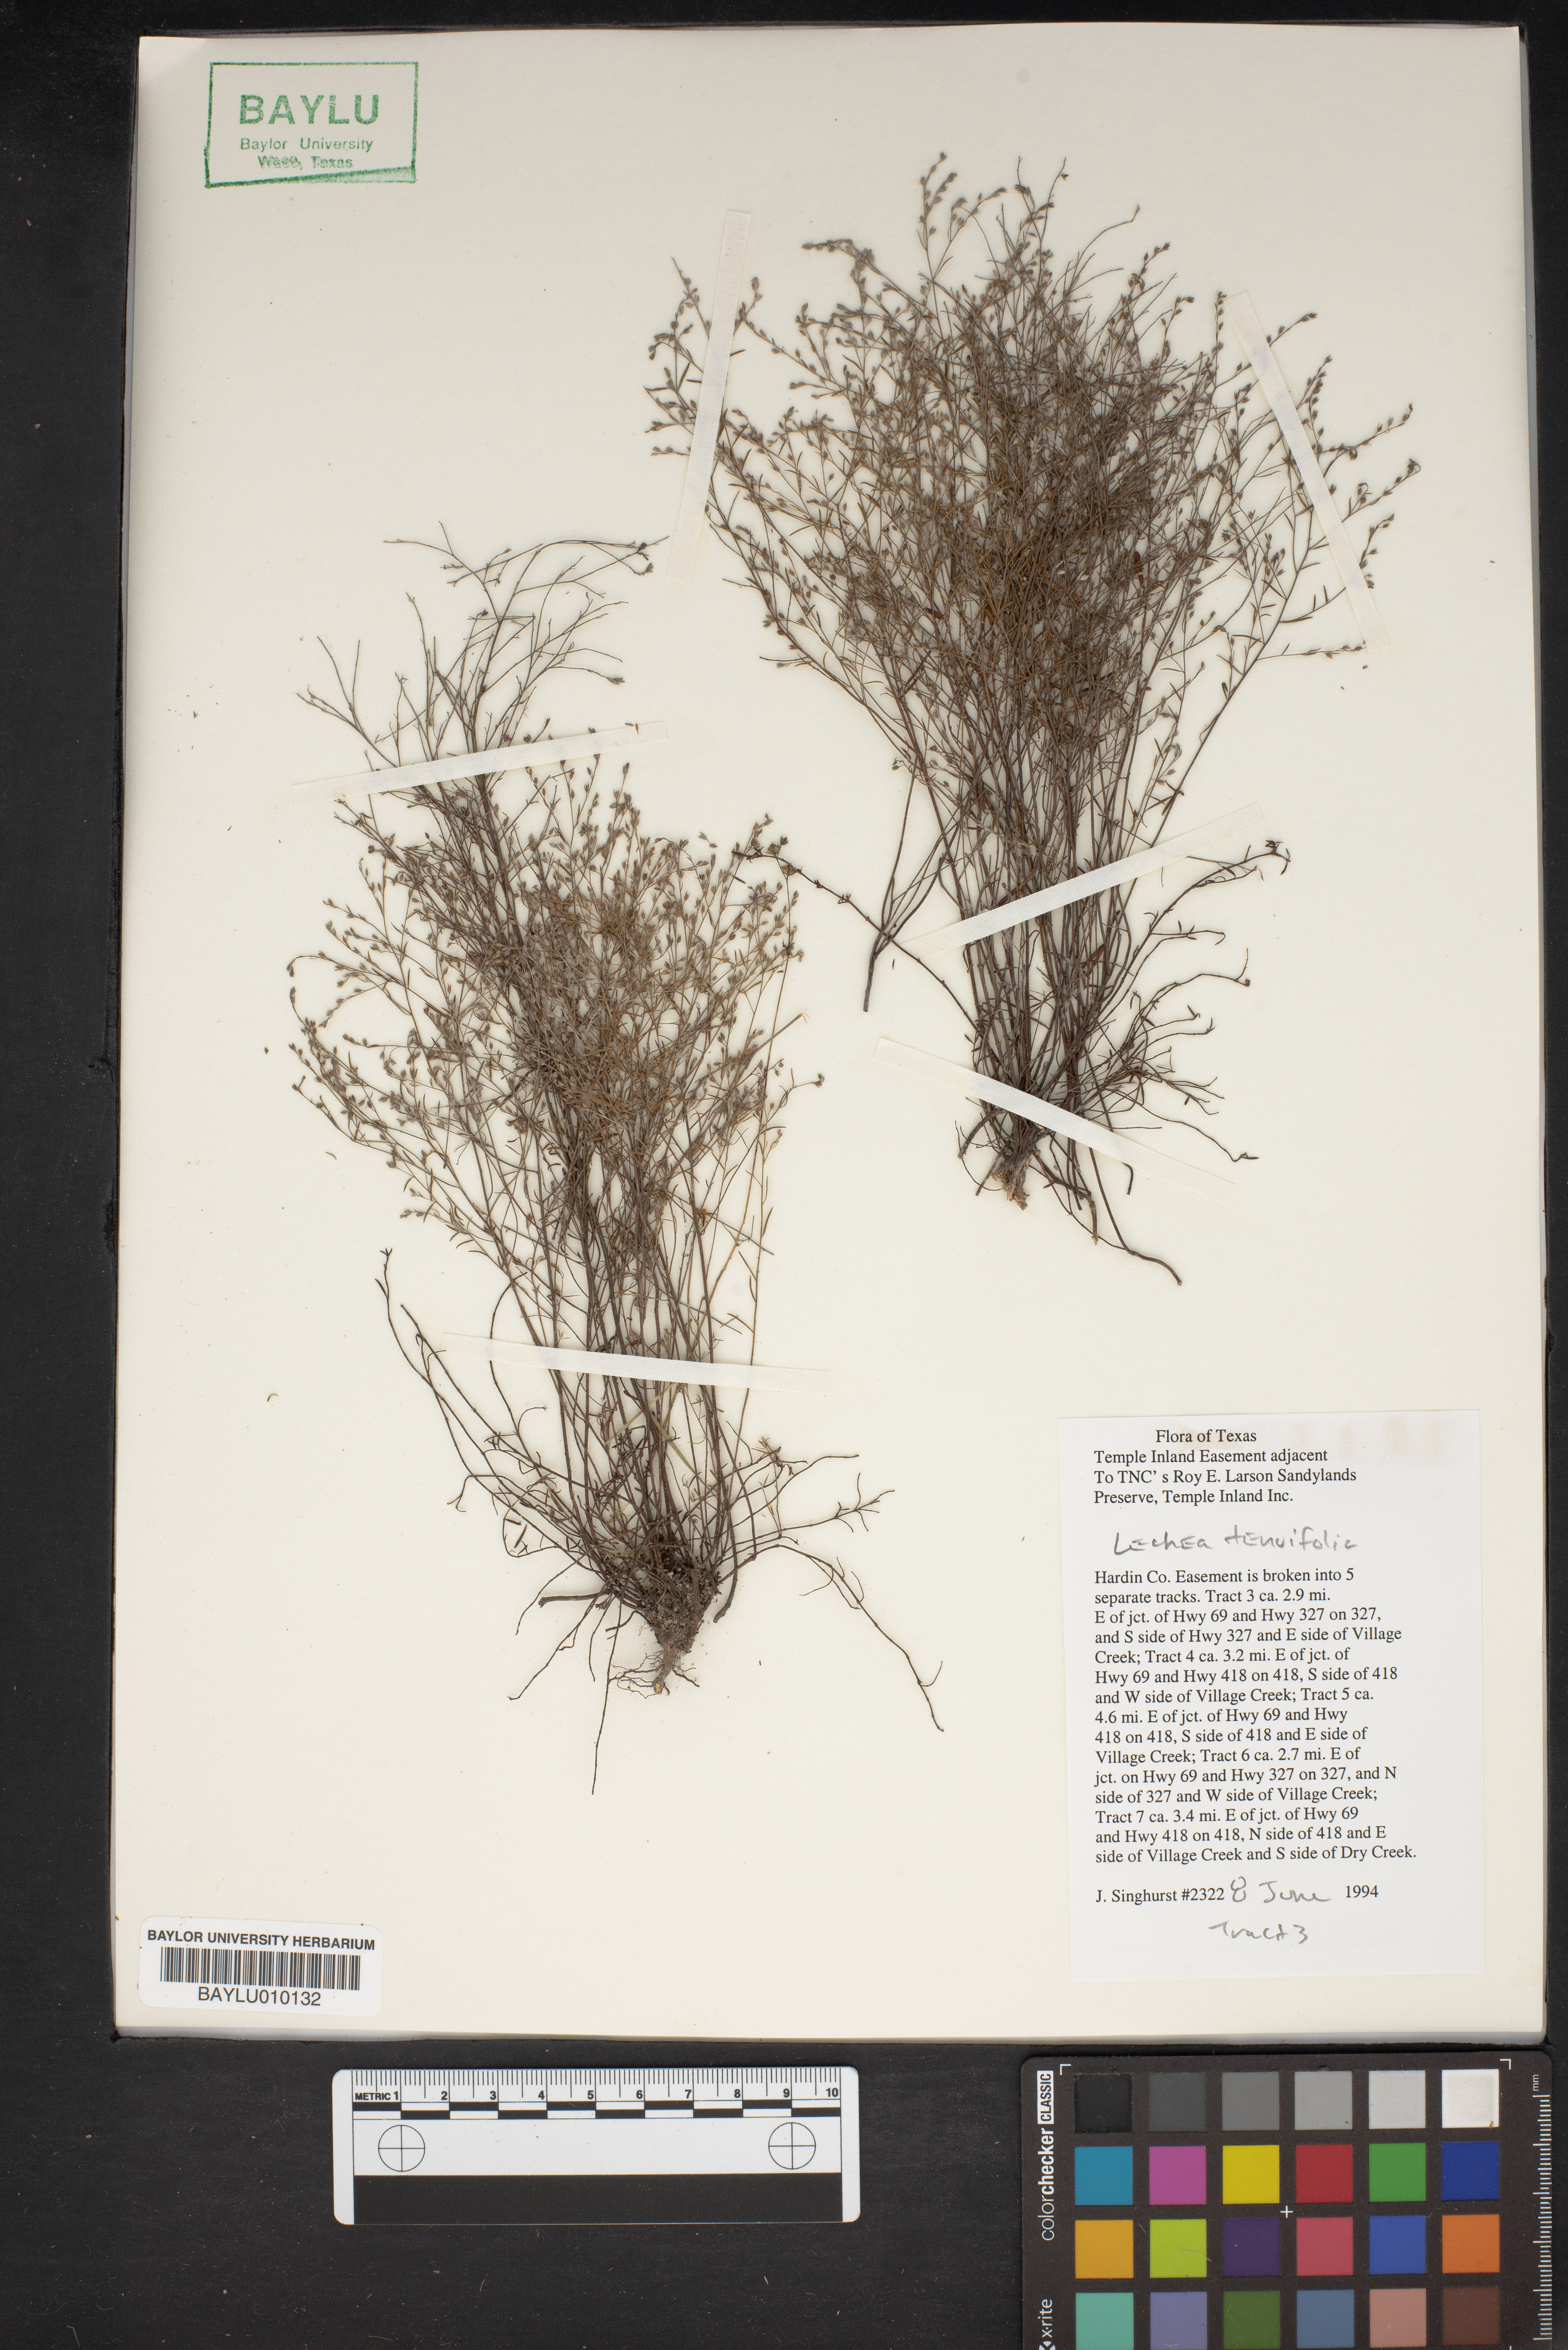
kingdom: Plantae
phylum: Tracheophyta
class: Magnoliopsida
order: Malvales
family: Cistaceae
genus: Lechea
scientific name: Lechea tenuifolia
